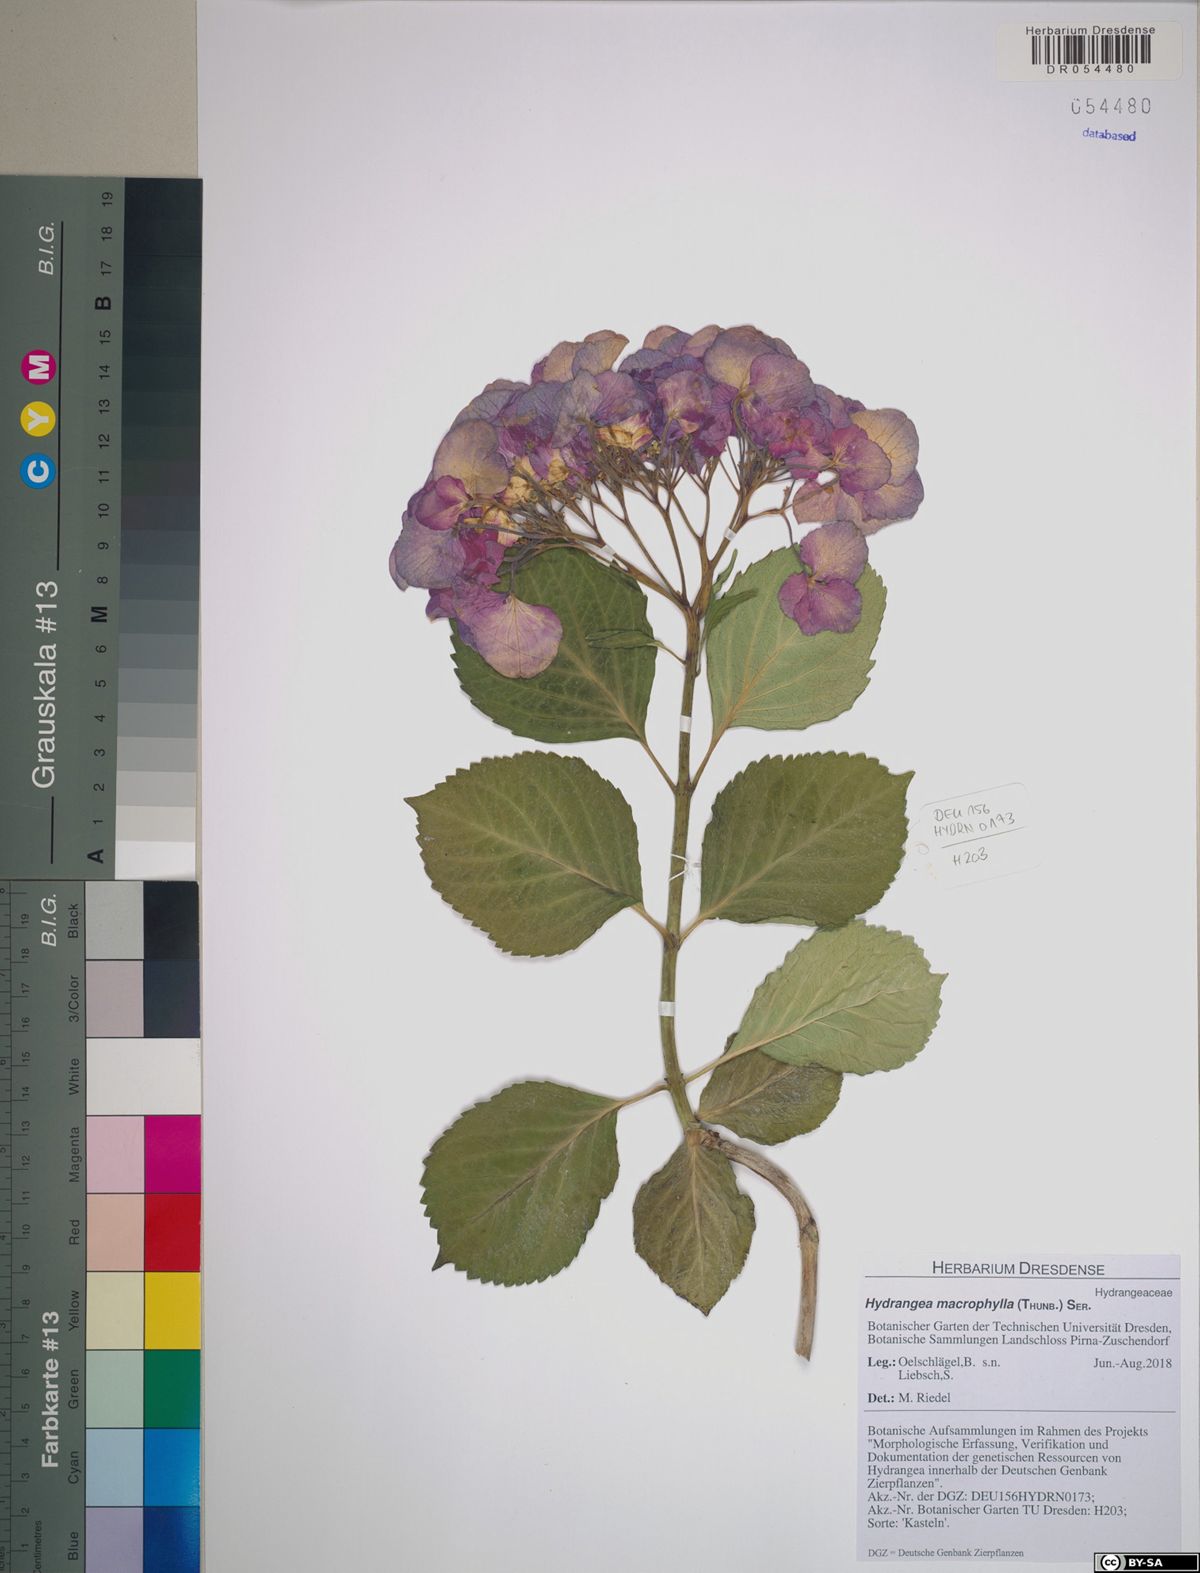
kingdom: Plantae
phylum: Tracheophyta
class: Magnoliopsida
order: Cornales
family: Hydrangeaceae
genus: Hydrangea
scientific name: Hydrangea macrophylla
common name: Hydrangea
